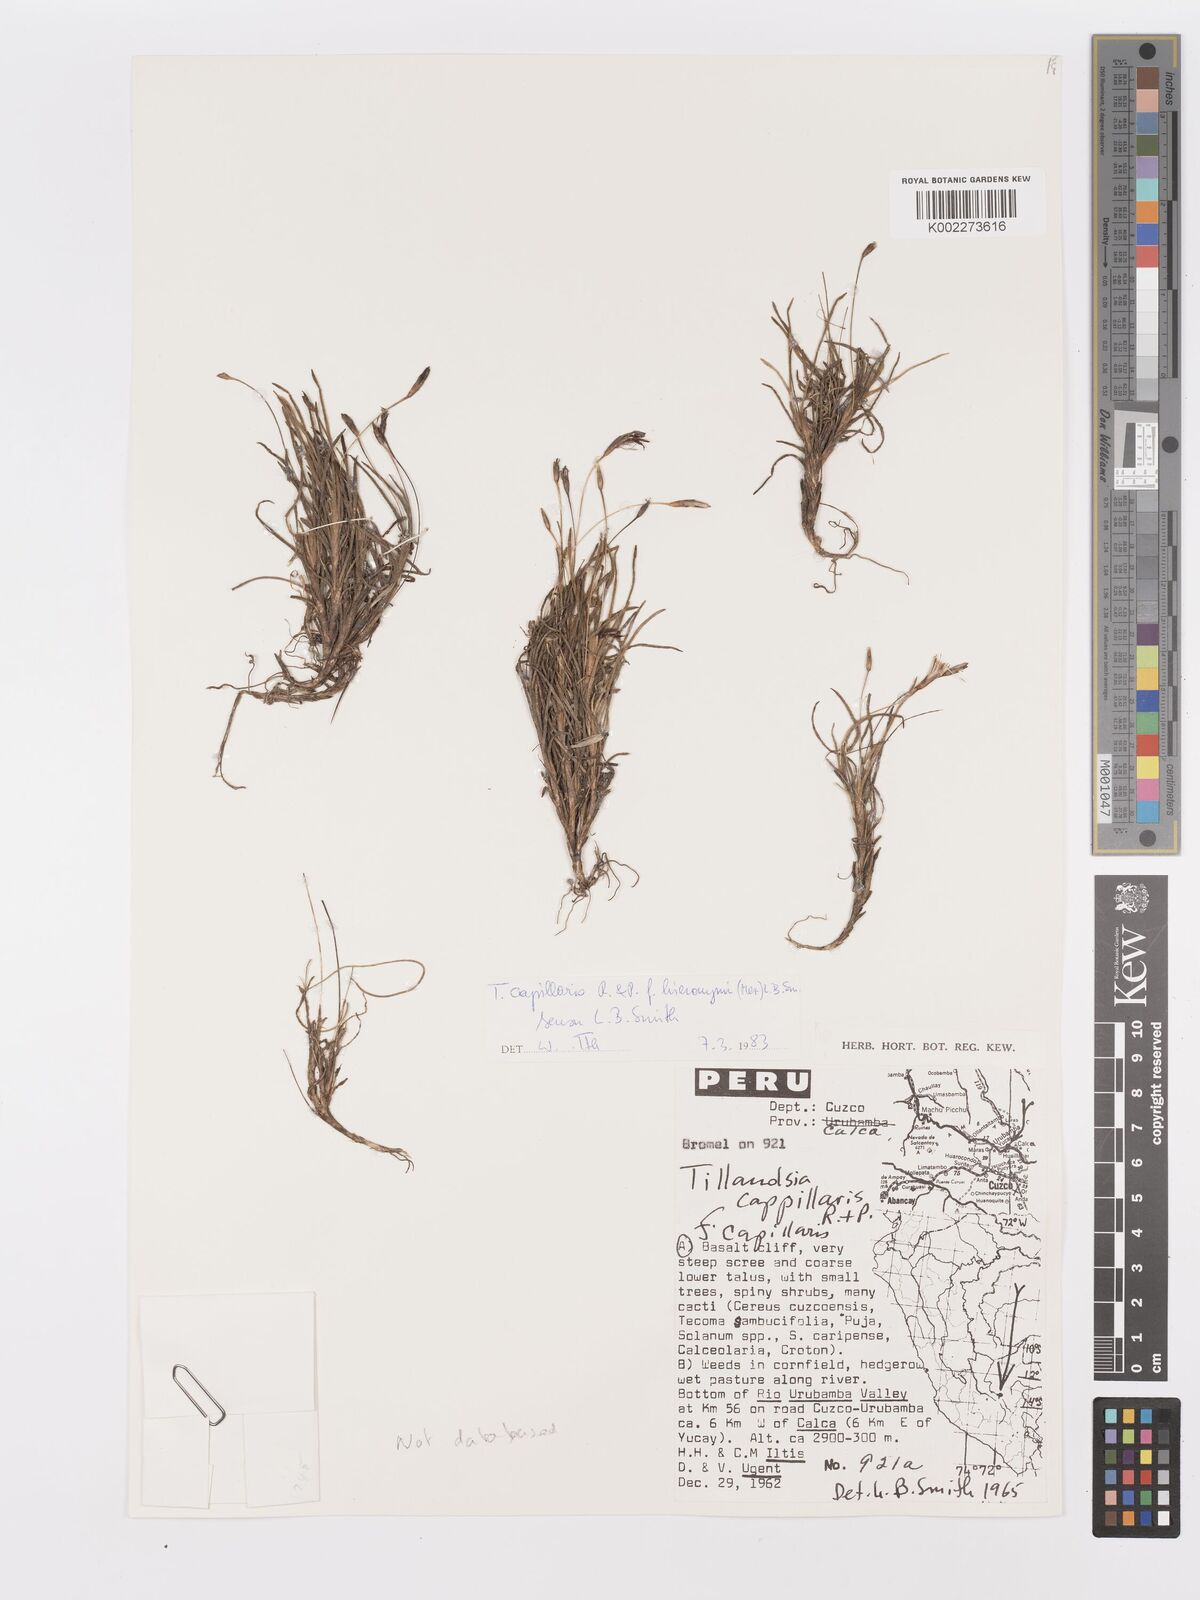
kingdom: Plantae
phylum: Tracheophyta
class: Liliopsida
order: Poales
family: Bromeliaceae
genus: Tillandsia
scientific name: Tillandsia capillaris
